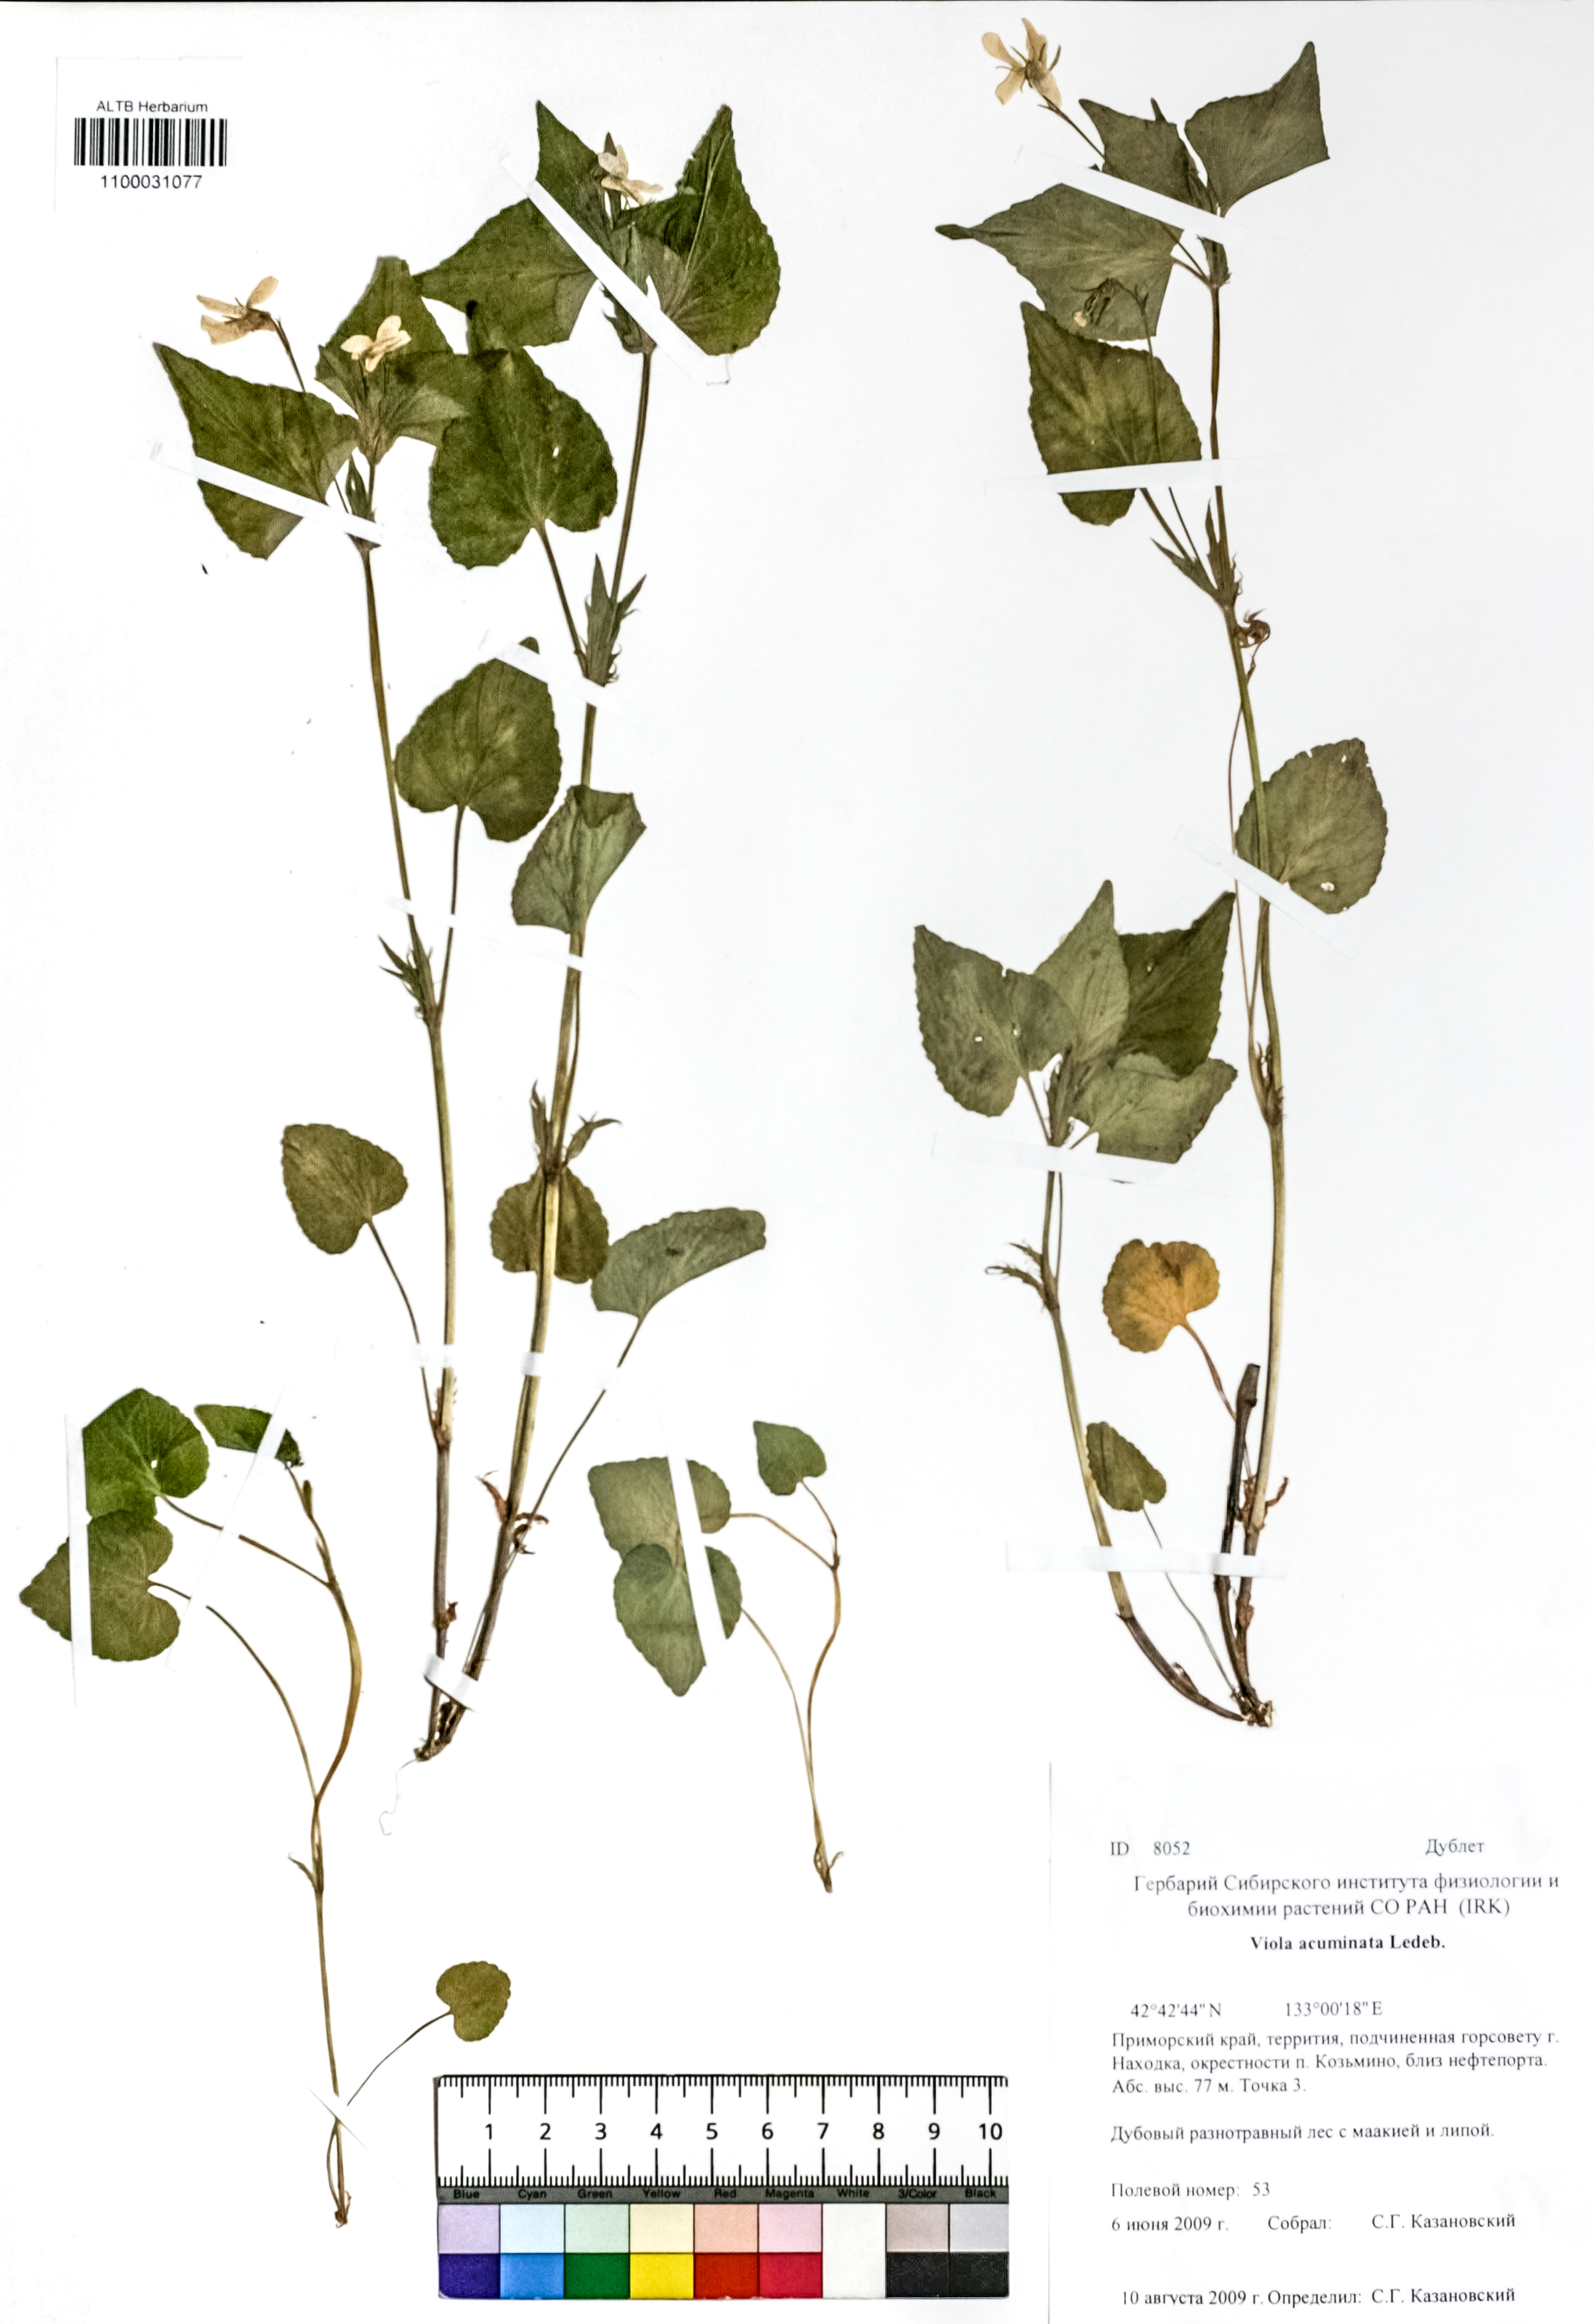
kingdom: Plantae
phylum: Tracheophyta
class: Magnoliopsida
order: Malpighiales
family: Violaceae
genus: Viola
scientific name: Viola acuminata
